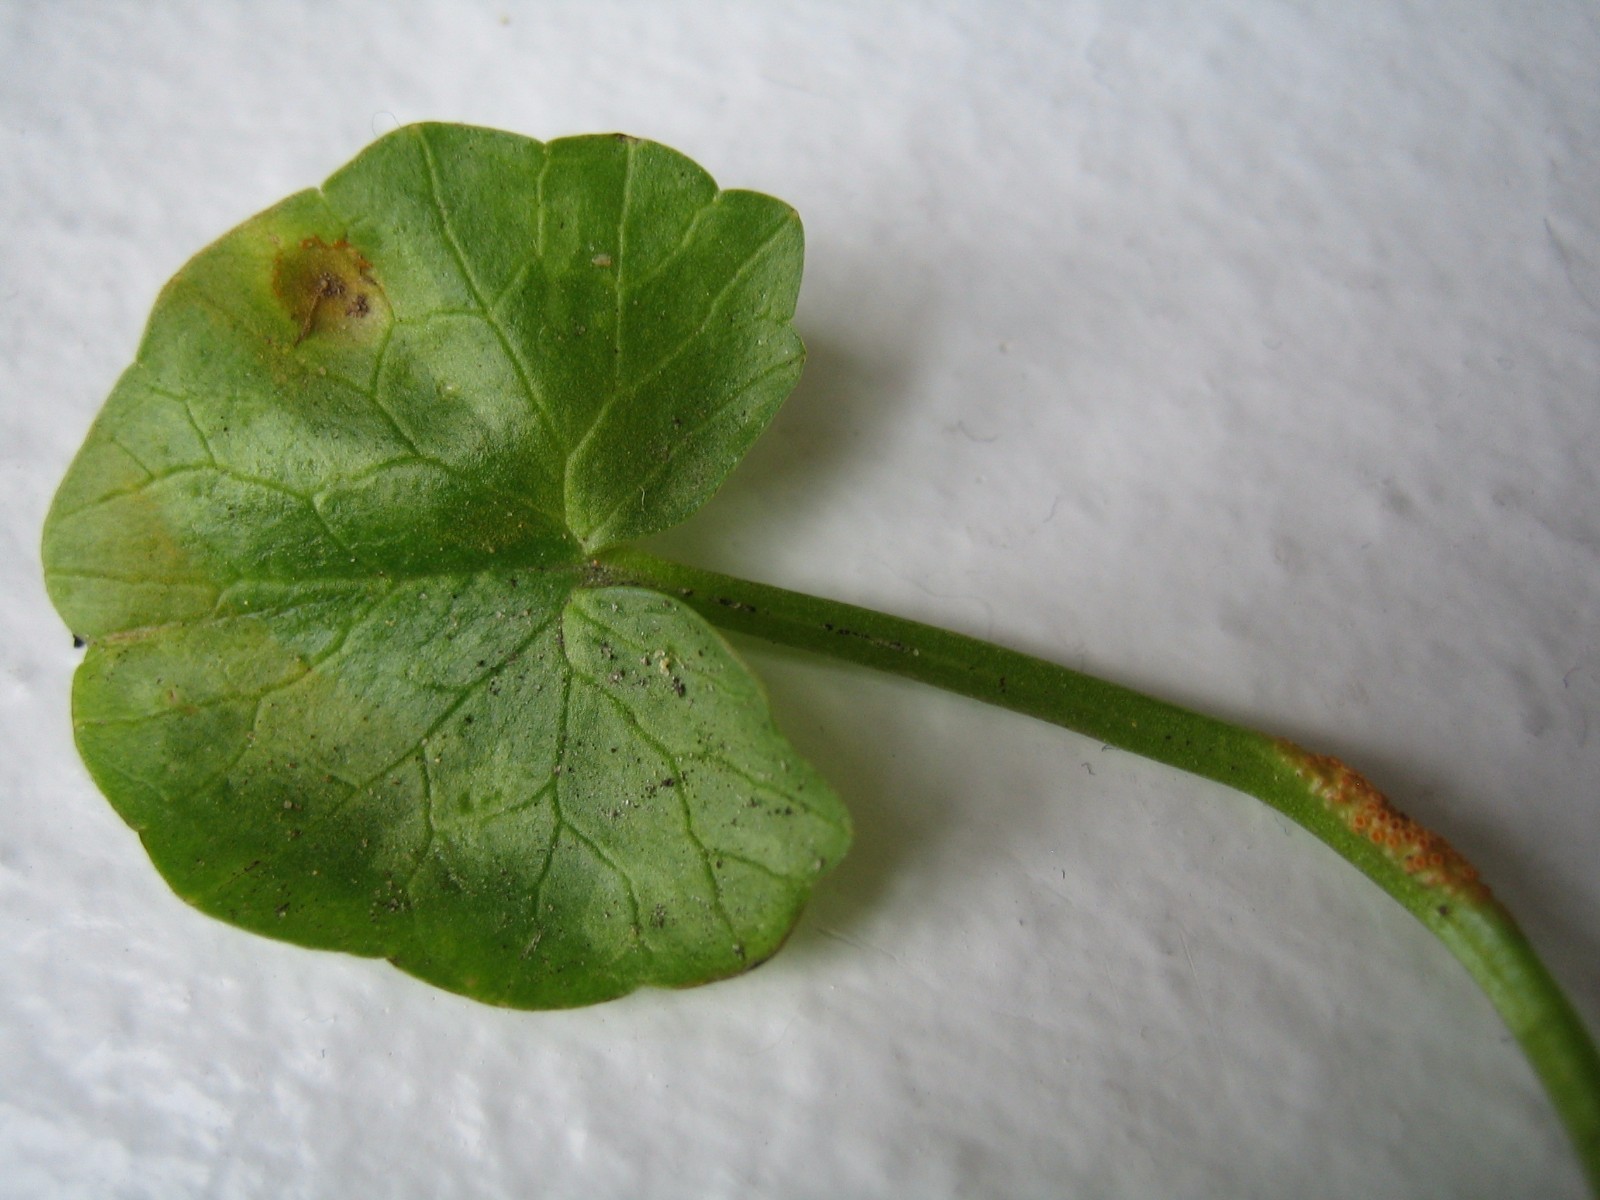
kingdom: Fungi
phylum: Basidiomycota
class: Pucciniomycetes
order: Pucciniales
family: Pucciniaceae
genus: Uromyces
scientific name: Uromyces dactylidis
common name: ranunkel-encellerust
